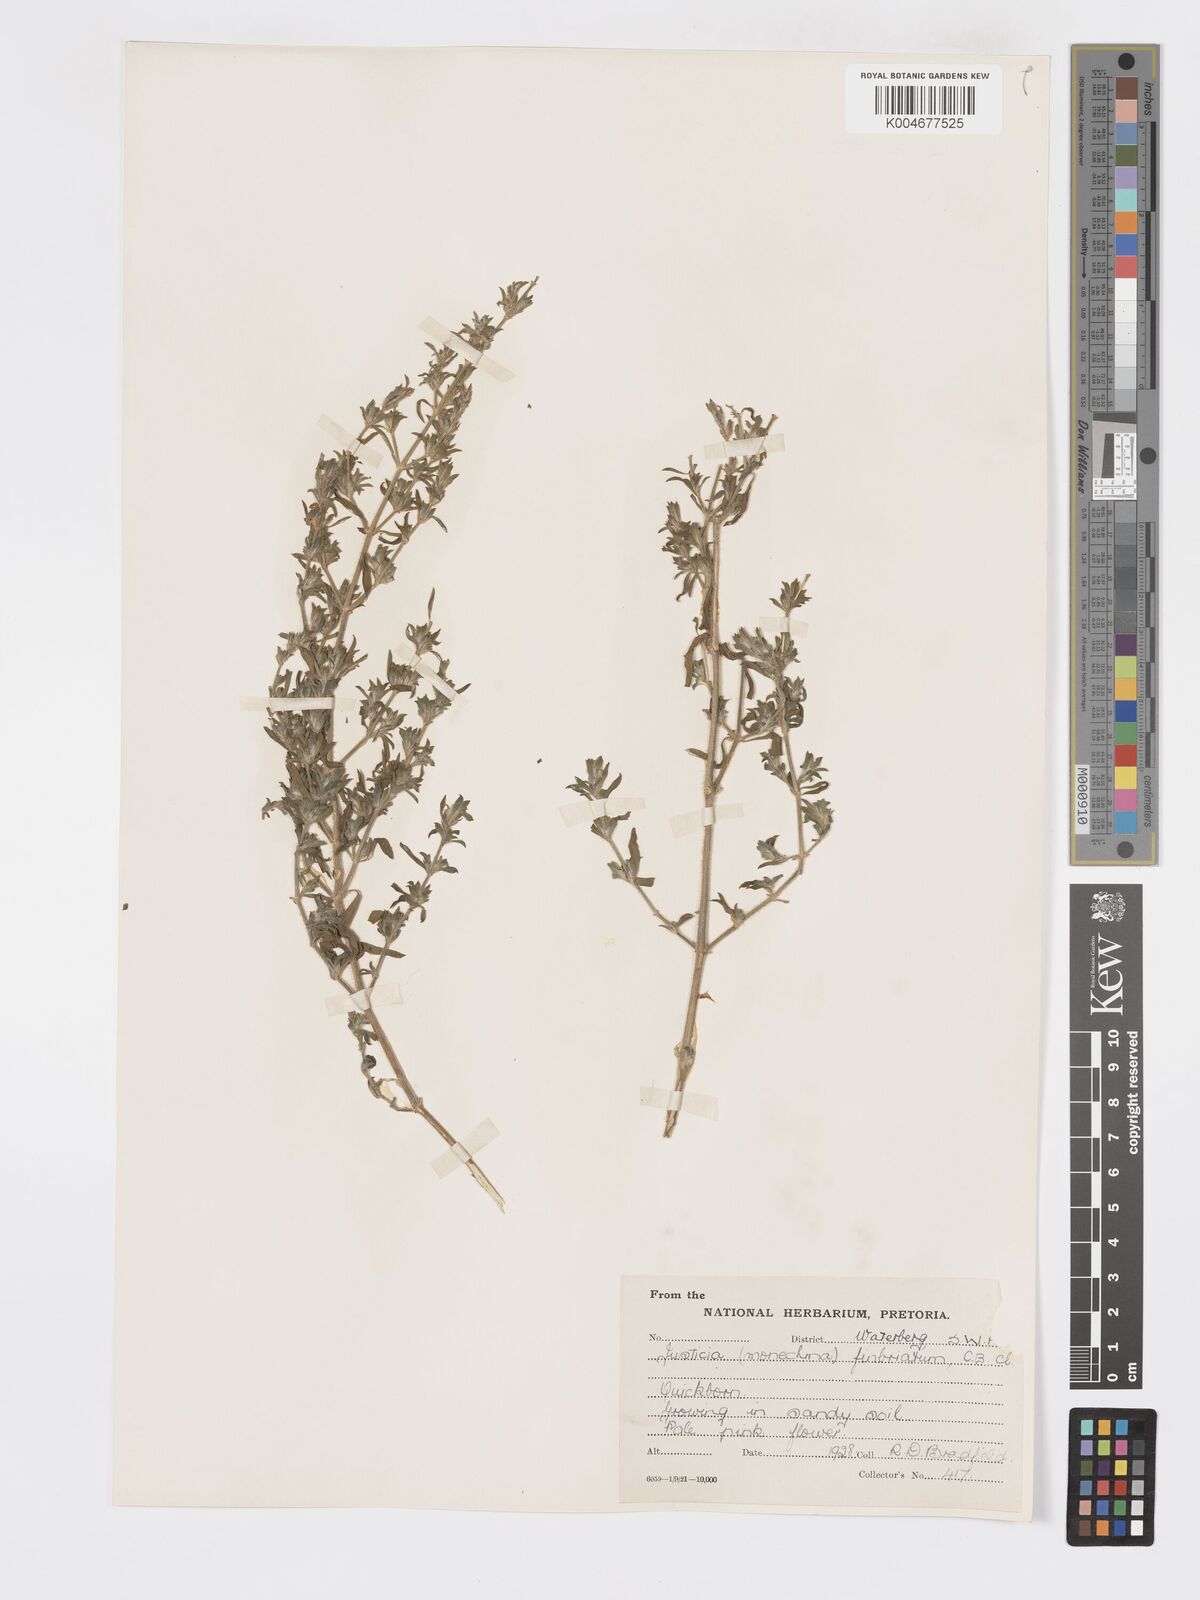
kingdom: Plantae
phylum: Tracheophyta
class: Magnoliopsida
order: Lamiales
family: Acanthaceae
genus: Pogonospermum
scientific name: Pogonospermum
